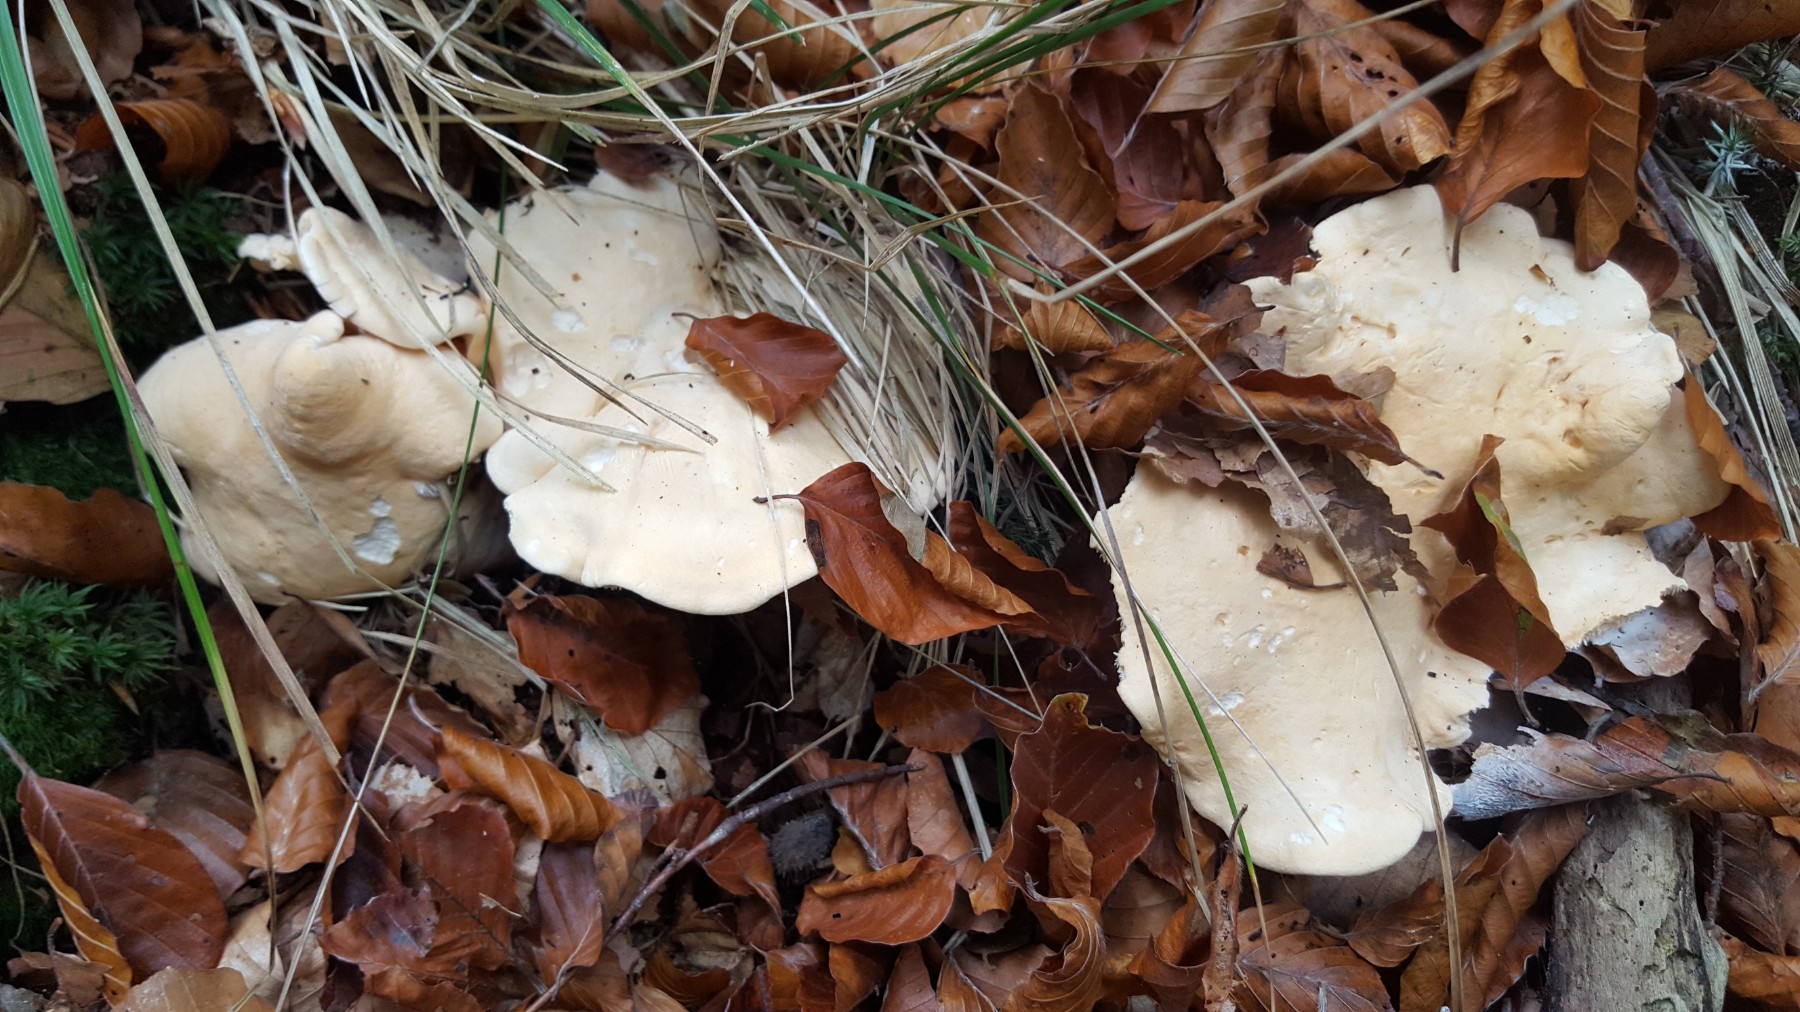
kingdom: Fungi
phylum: Basidiomycota
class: Agaricomycetes
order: Cantharellales
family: Hydnaceae
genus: Hydnum
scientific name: Hydnum repandum
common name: almindelig pigsvamp
